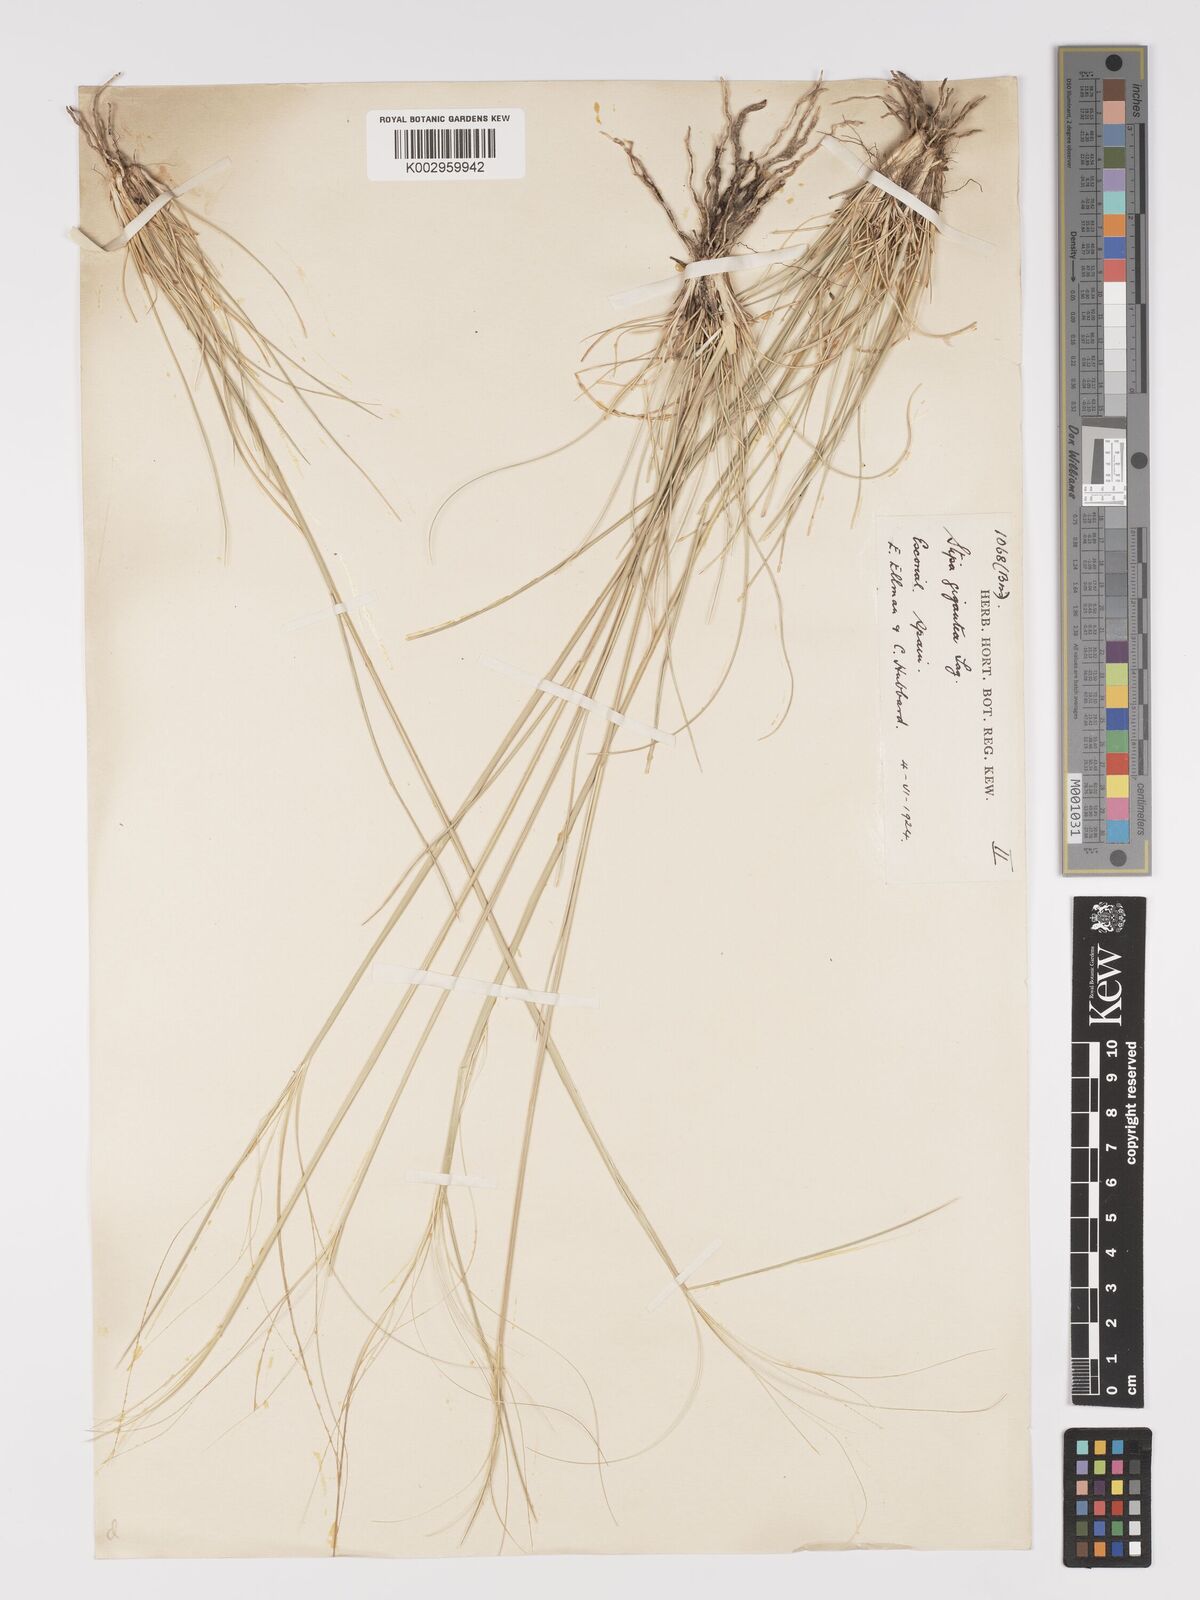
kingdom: Plantae
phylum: Tracheophyta
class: Liliopsida
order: Poales
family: Poaceae
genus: Stipa
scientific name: Stipa
